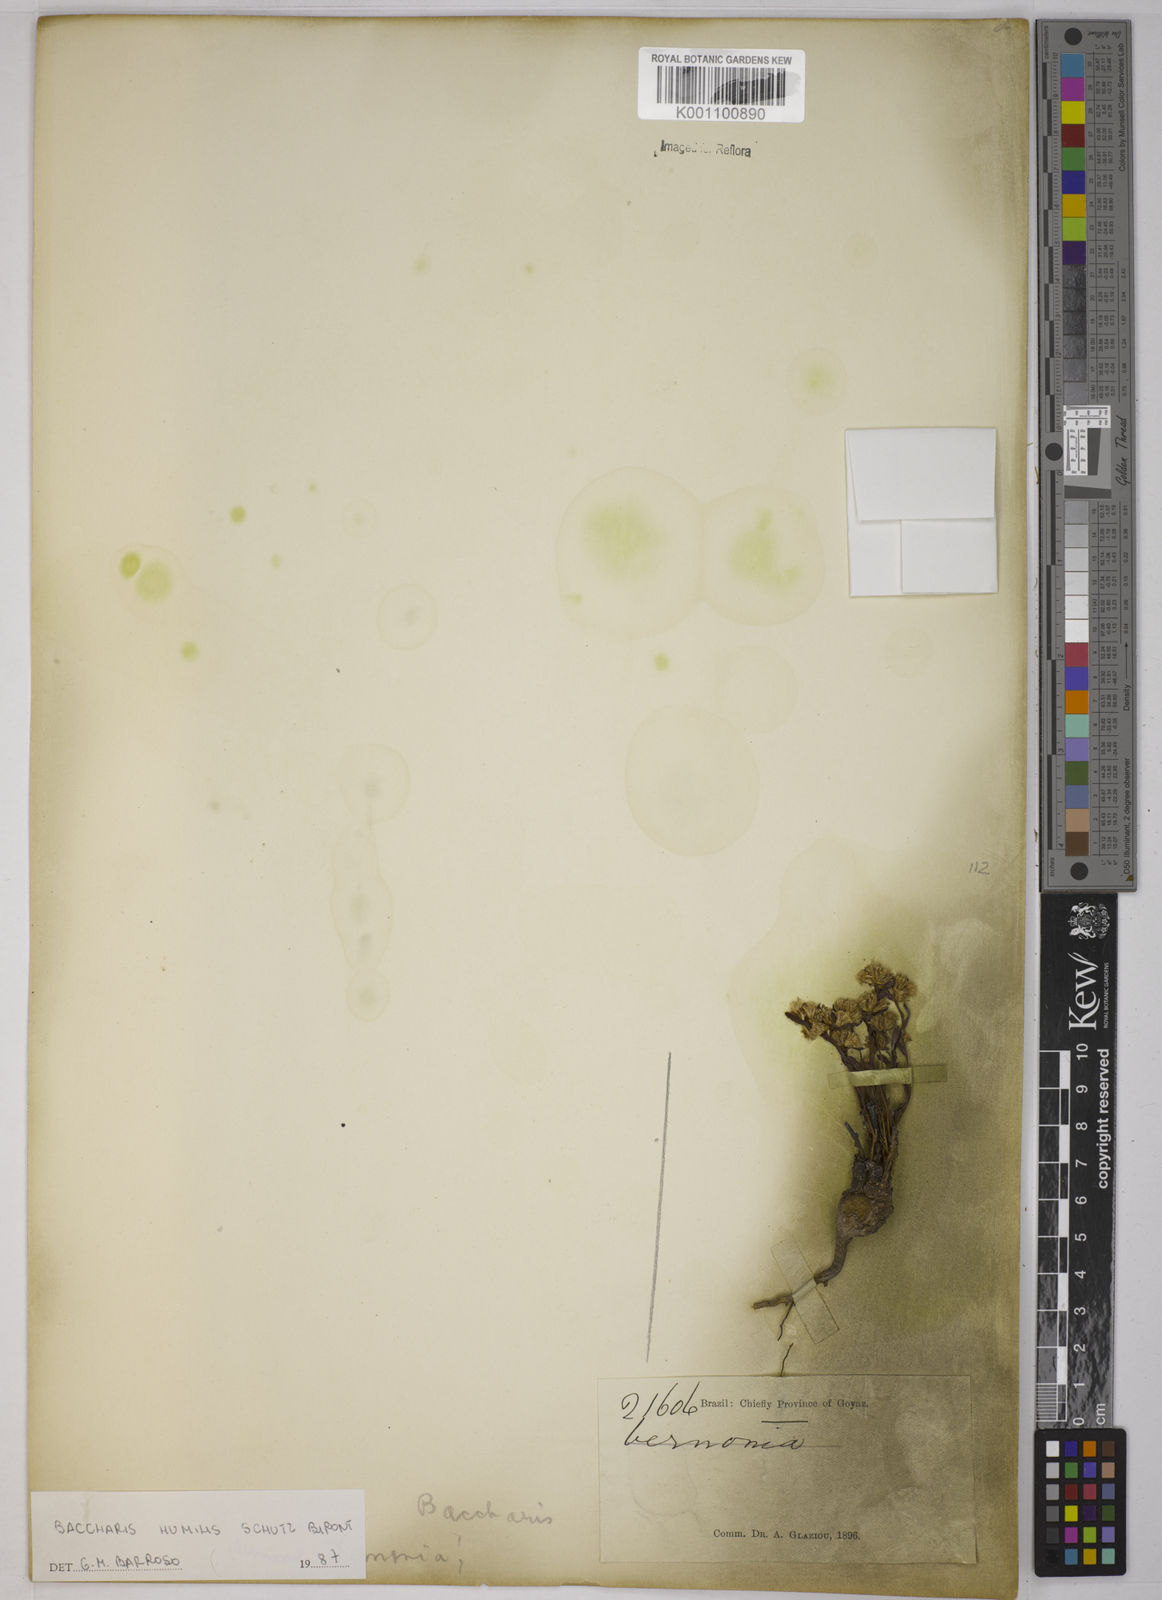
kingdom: Plantae
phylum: Tracheophyta
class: Magnoliopsida
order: Asterales
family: Asteraceae
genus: Baccharis
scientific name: Baccharis humilis
